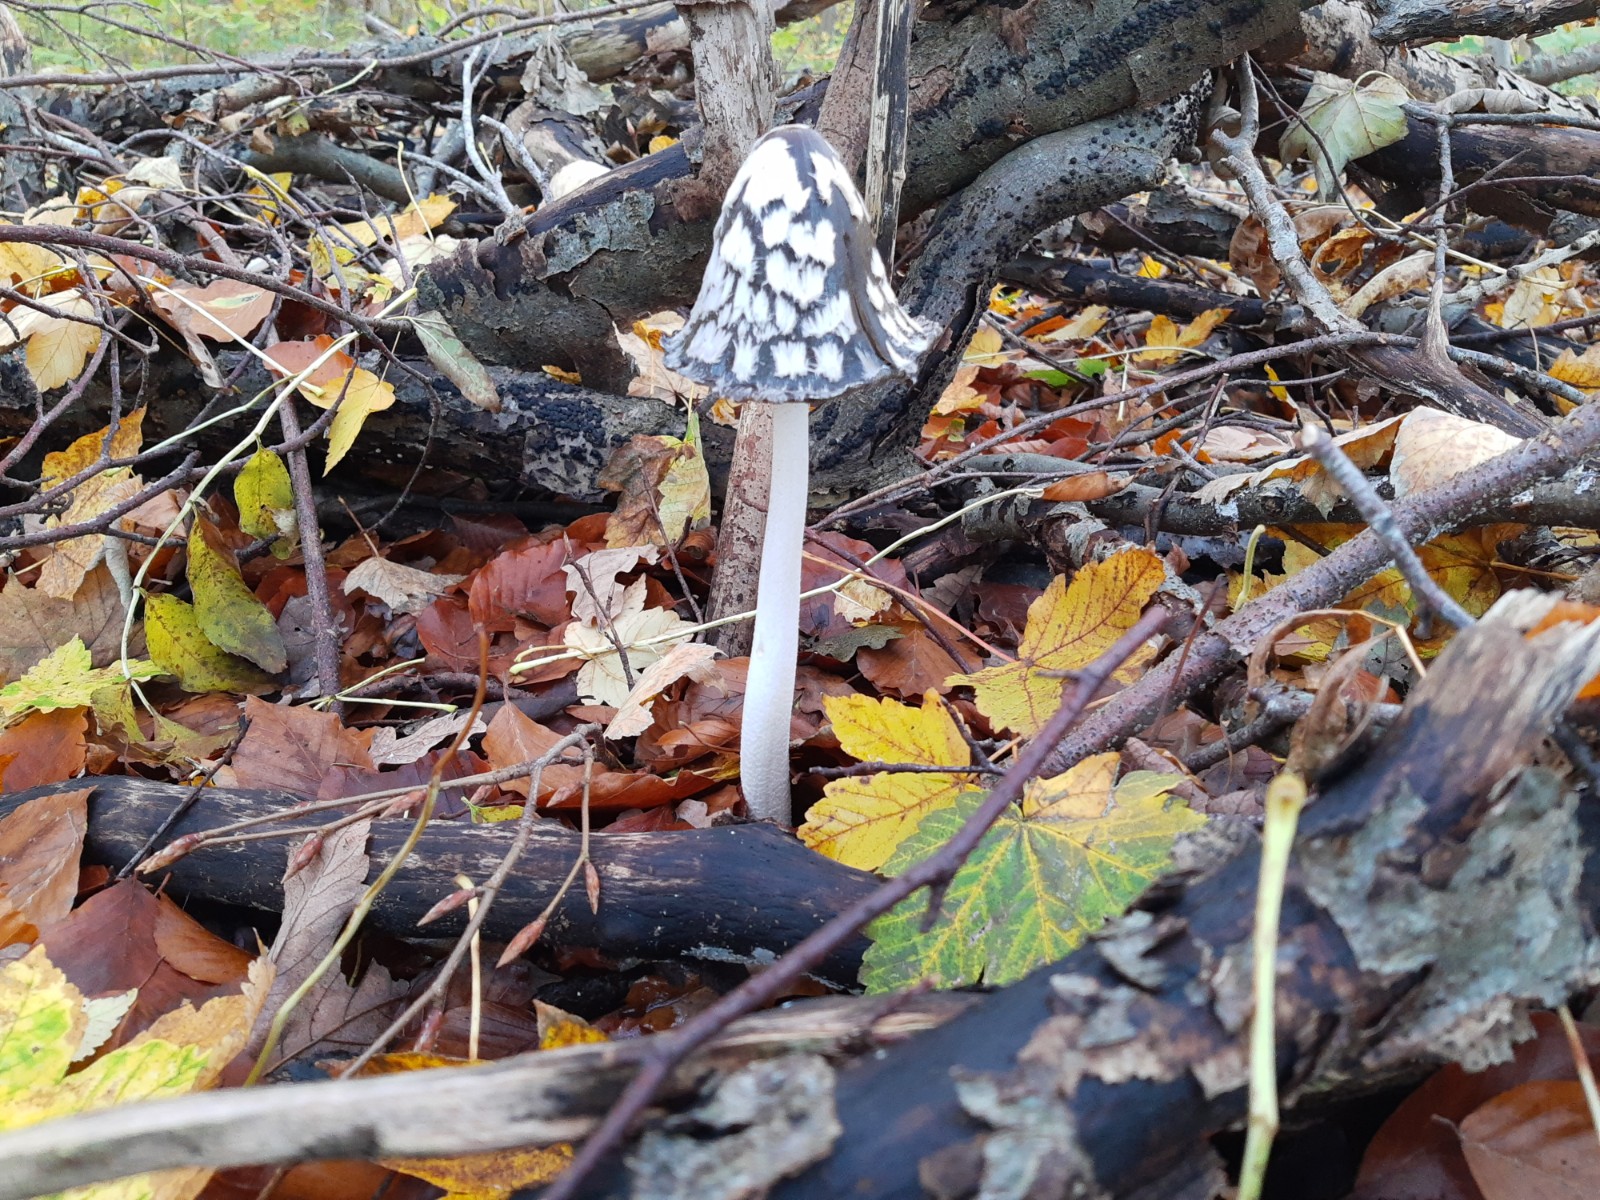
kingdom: Fungi
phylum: Basidiomycota
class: Agaricomycetes
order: Agaricales
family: Psathyrellaceae
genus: Coprinopsis
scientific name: Coprinopsis picacea
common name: skade-blækhat
